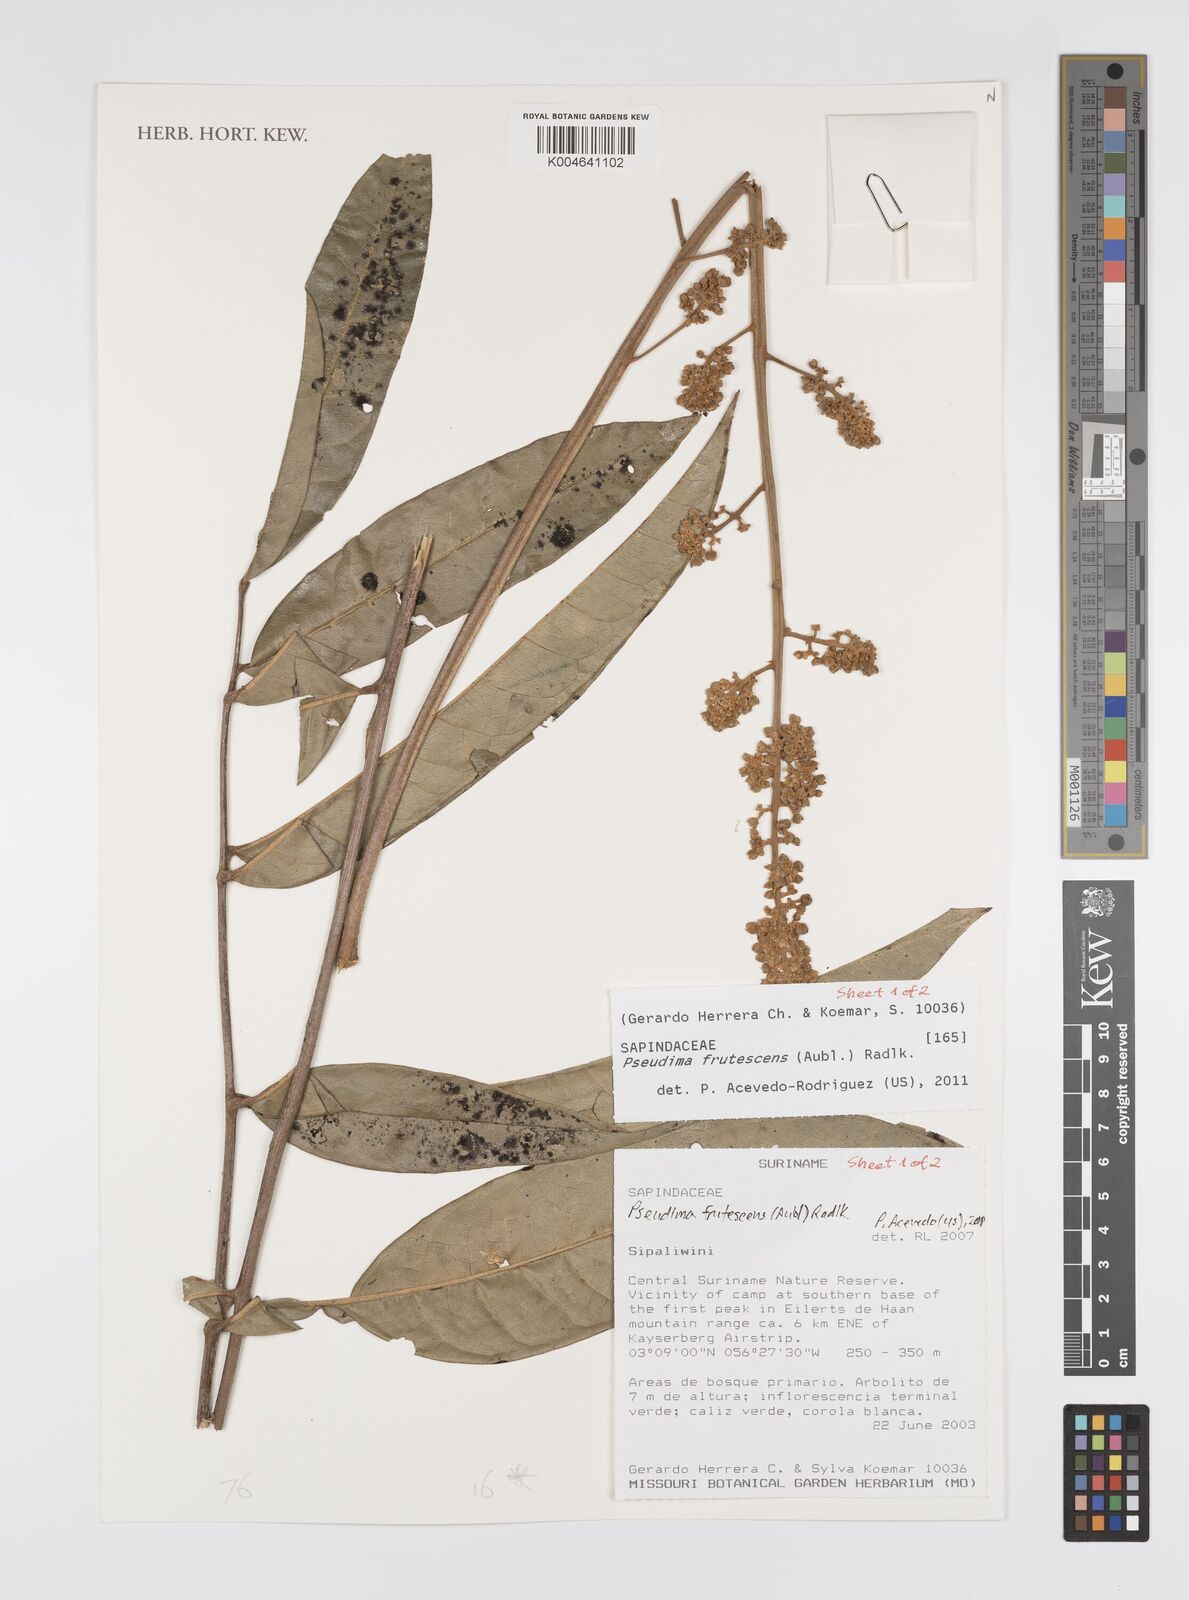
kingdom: Plantae
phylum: Tracheophyta
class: Magnoliopsida
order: Sapindales
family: Sapindaceae
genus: Pseudima
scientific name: Pseudima frutescens
